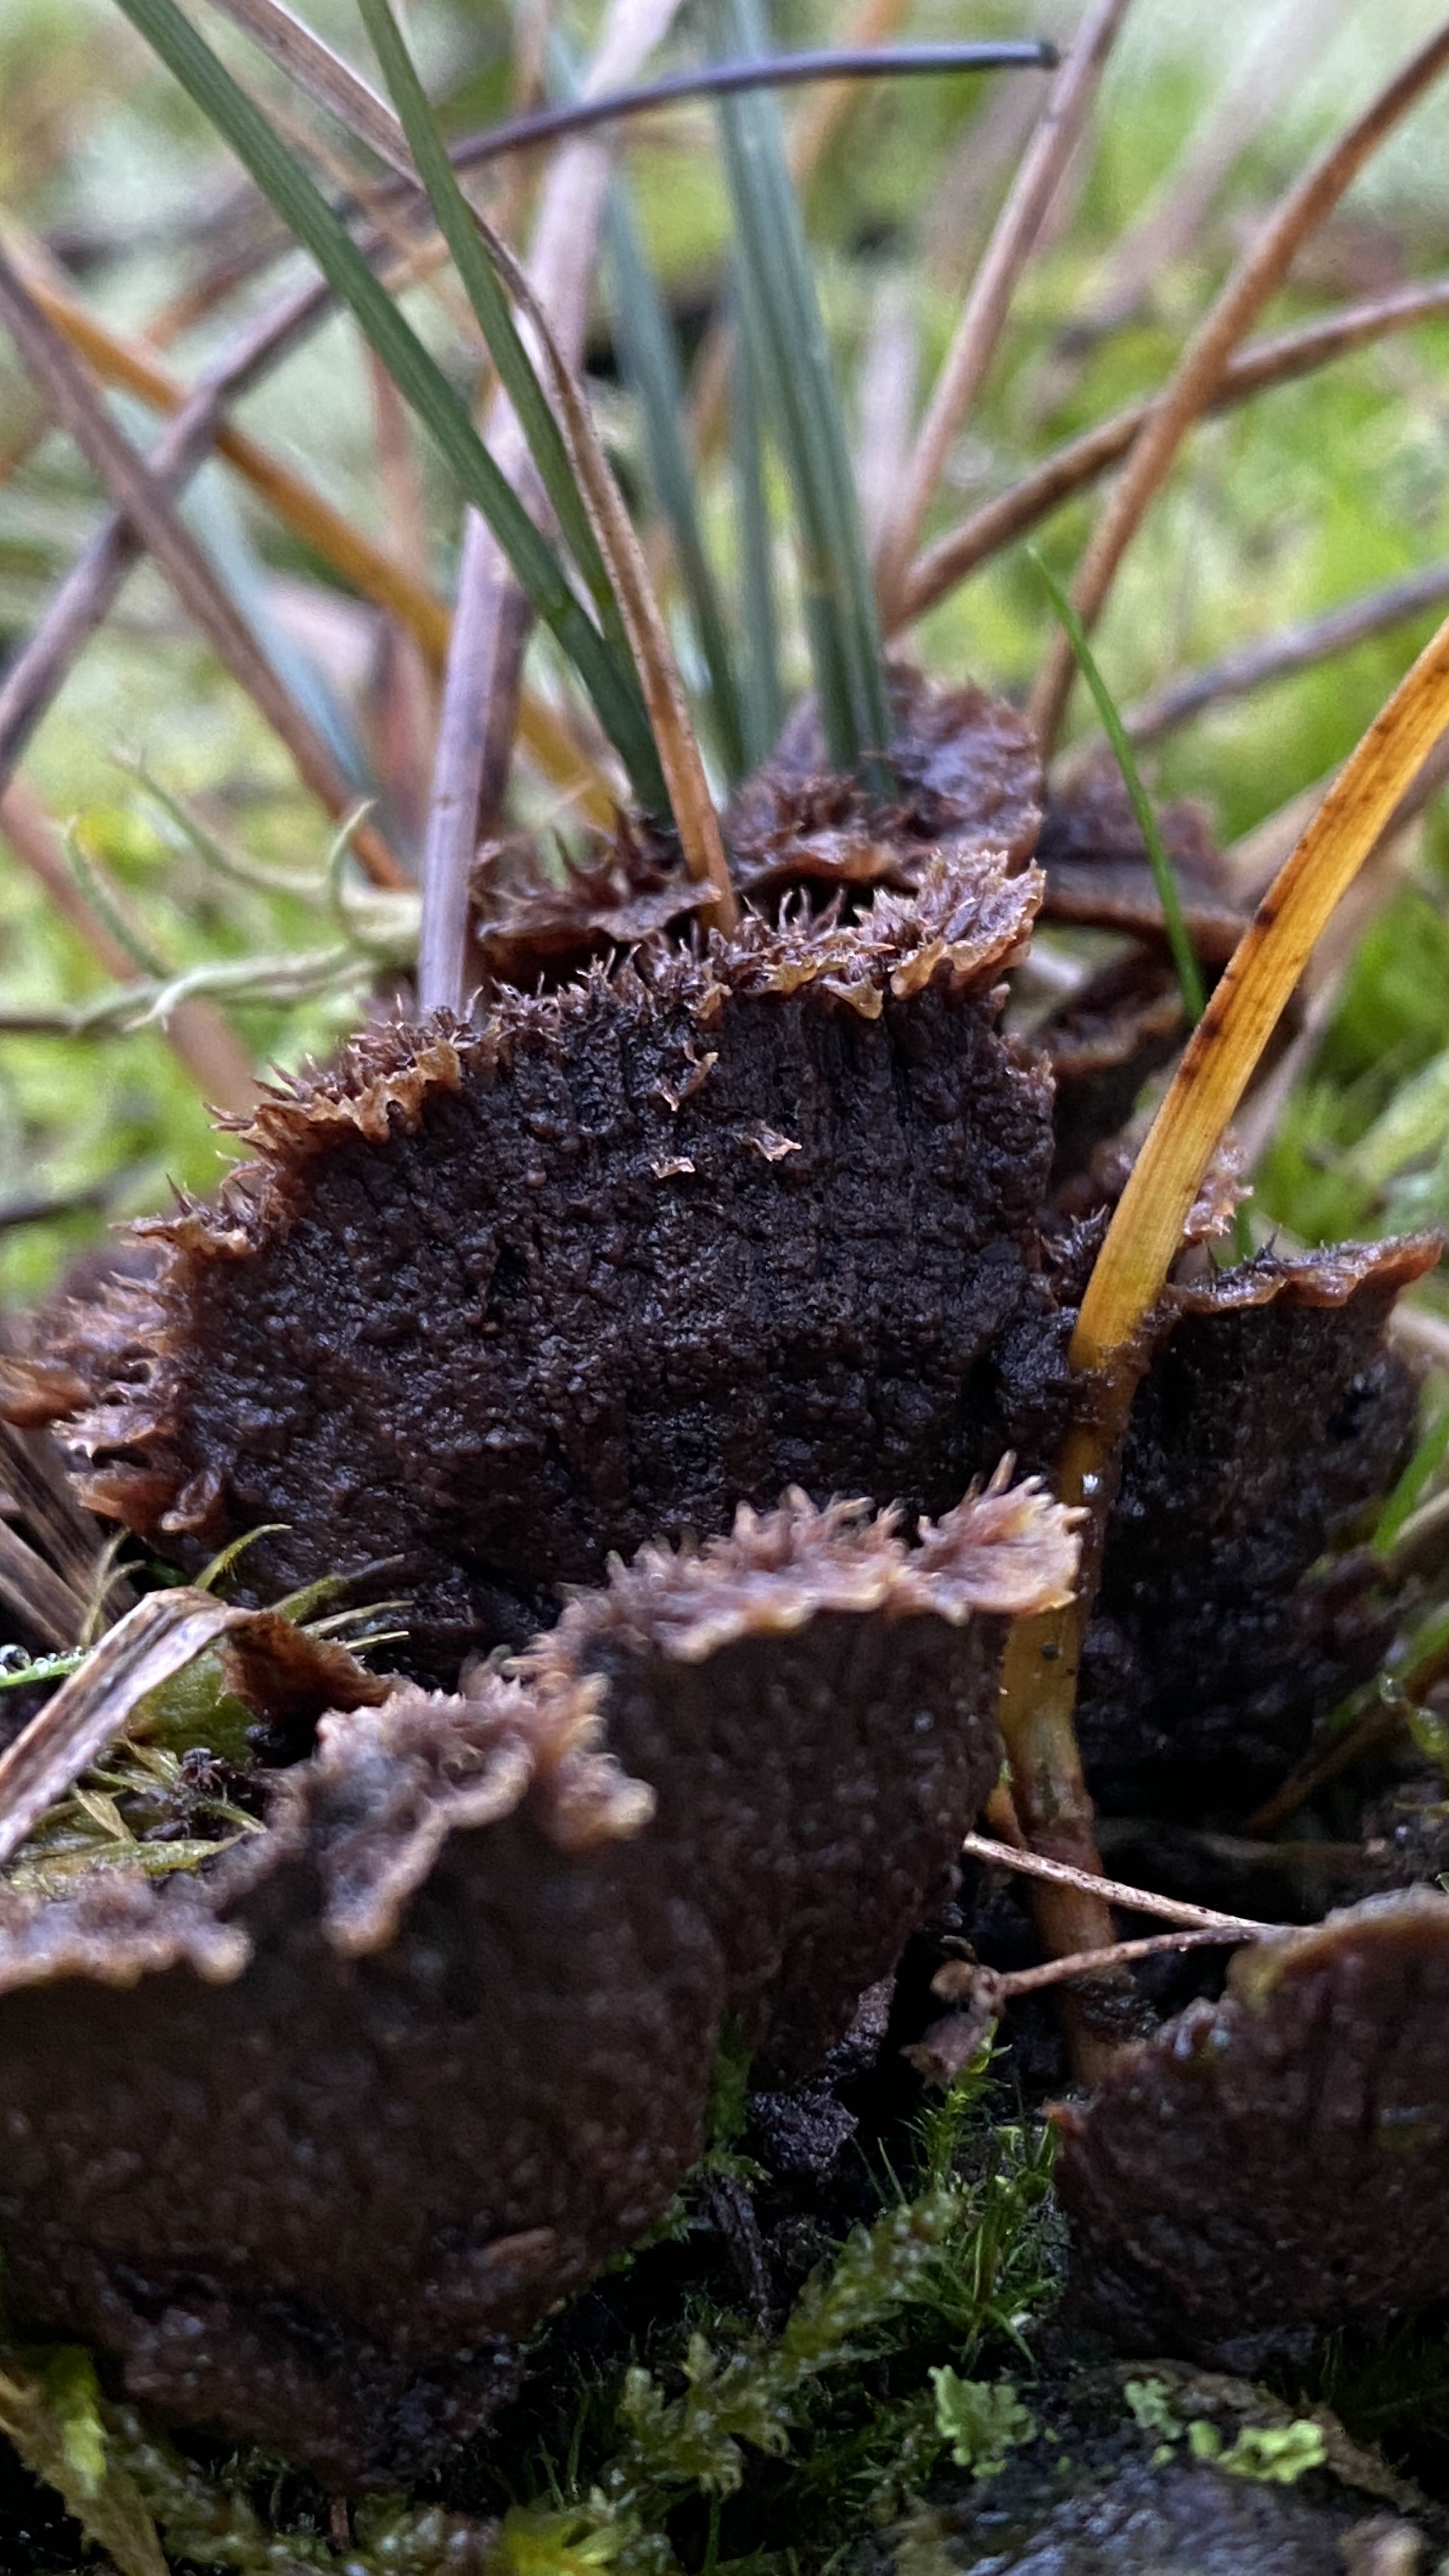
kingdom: Fungi
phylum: Basidiomycota
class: Agaricomycetes
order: Thelephorales
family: Thelephoraceae
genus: Thelephora
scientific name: Thelephora terrestris
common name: fliget frynsesvamp
